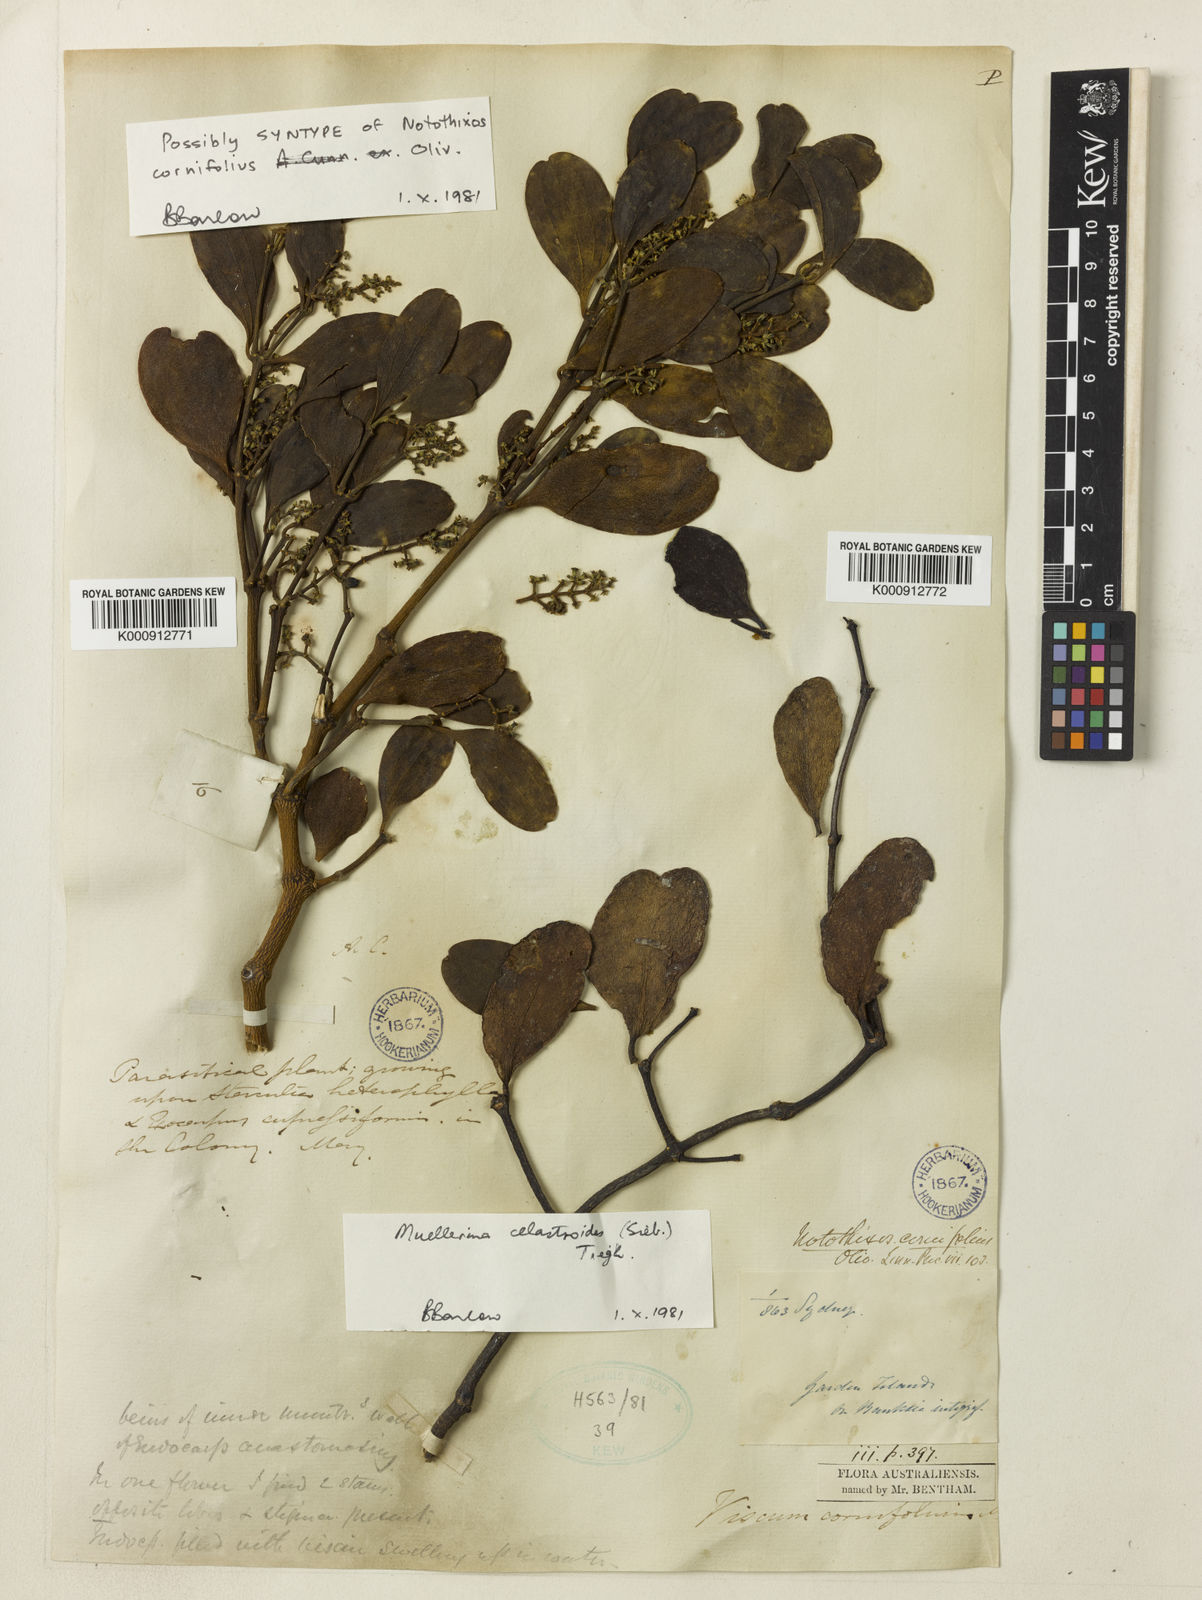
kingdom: Plantae
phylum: Tracheophyta
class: Magnoliopsida
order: Santalales
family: Viscaceae
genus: Notothixos
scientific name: Notothixos cornifolius
